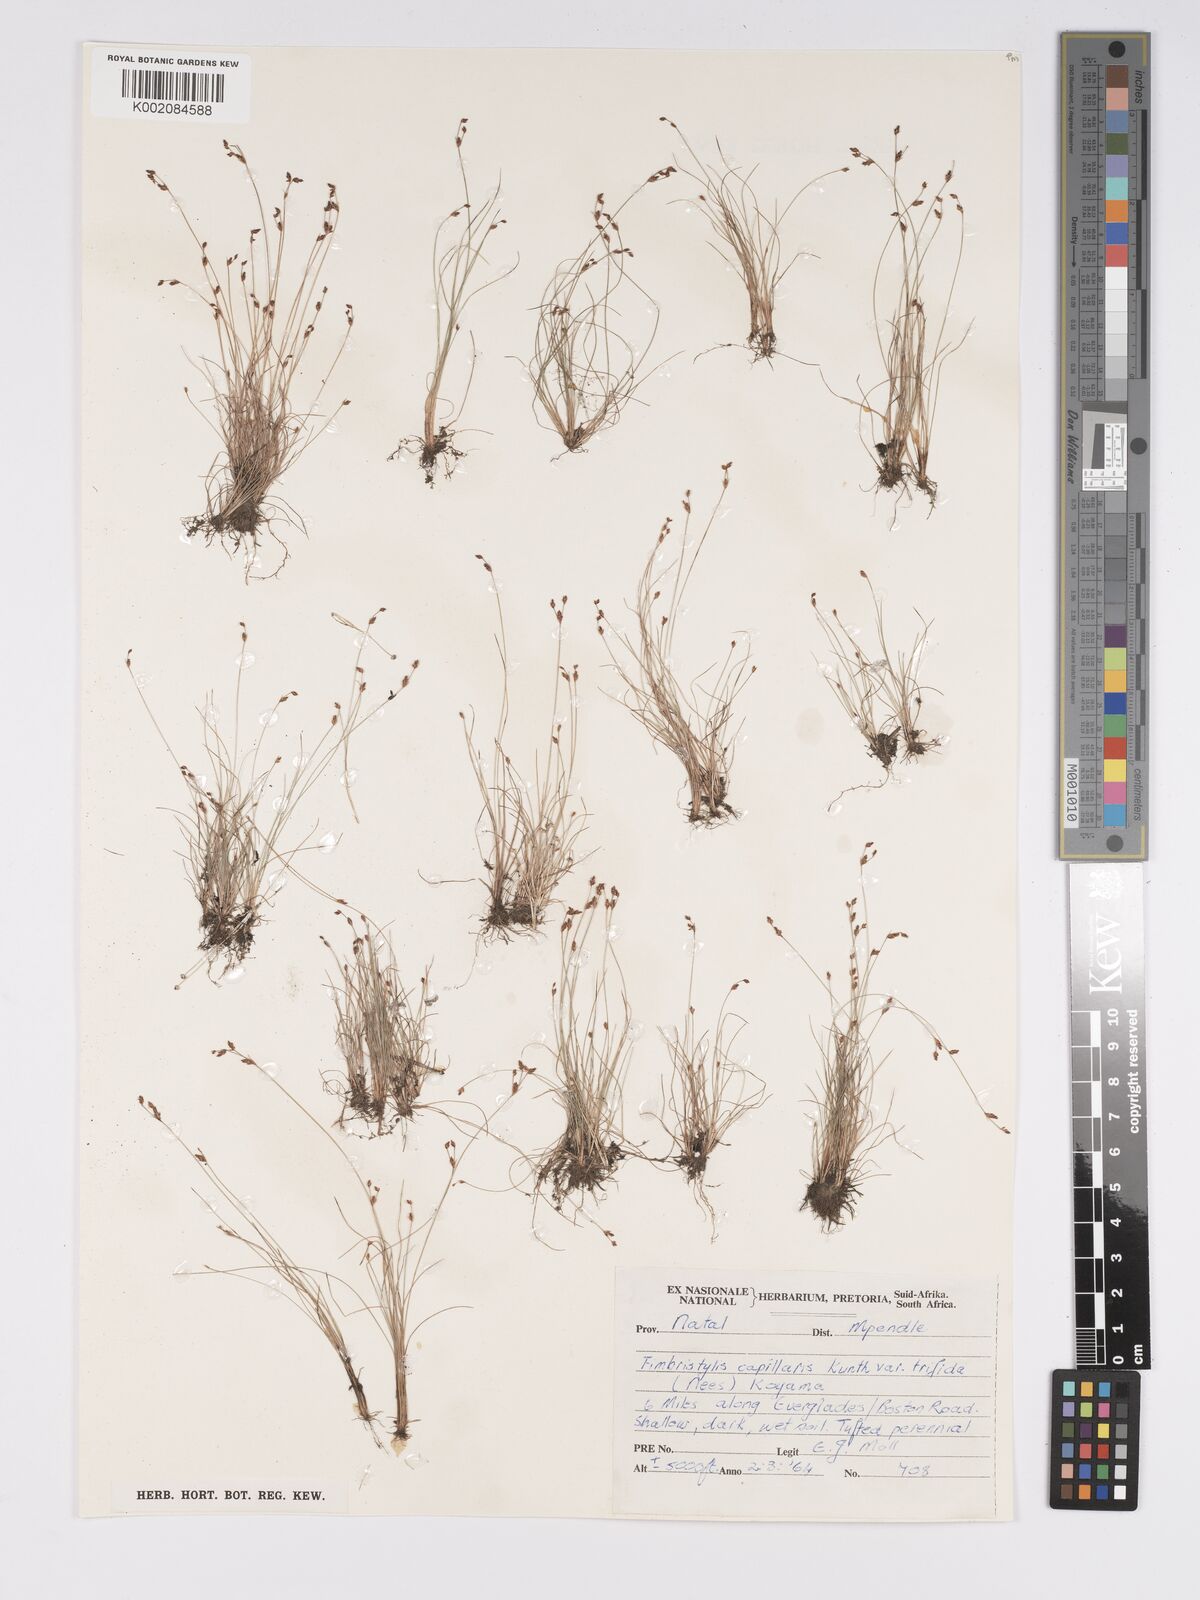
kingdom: Plantae
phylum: Tracheophyta
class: Liliopsida
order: Poales
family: Cyperaceae
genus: Bulbostylis
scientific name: Bulbostylis capillaris
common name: Densetuft hairsedge
